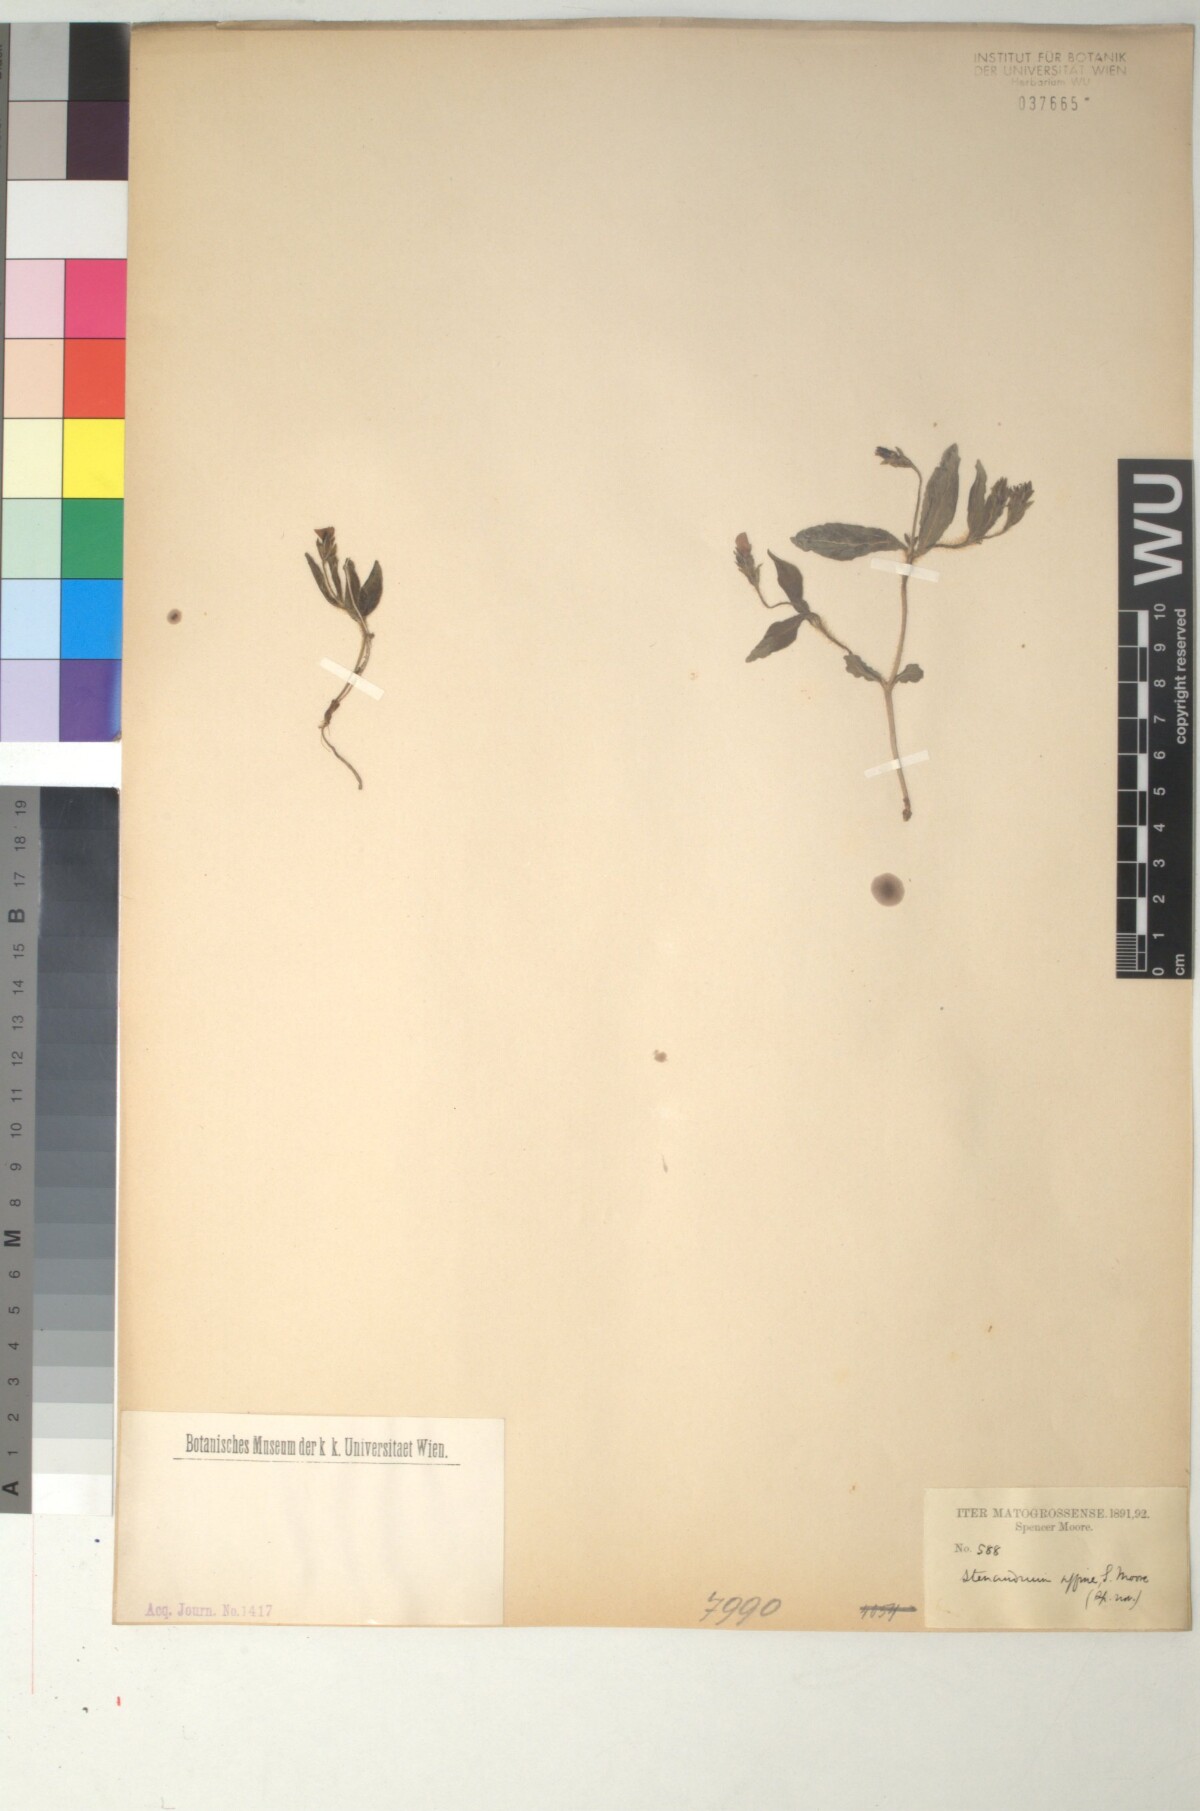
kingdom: Plantae
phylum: Tracheophyta
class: Magnoliopsida
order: Lamiales
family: Acanthaceae
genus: Stenandrium
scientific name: Stenandrium affine
